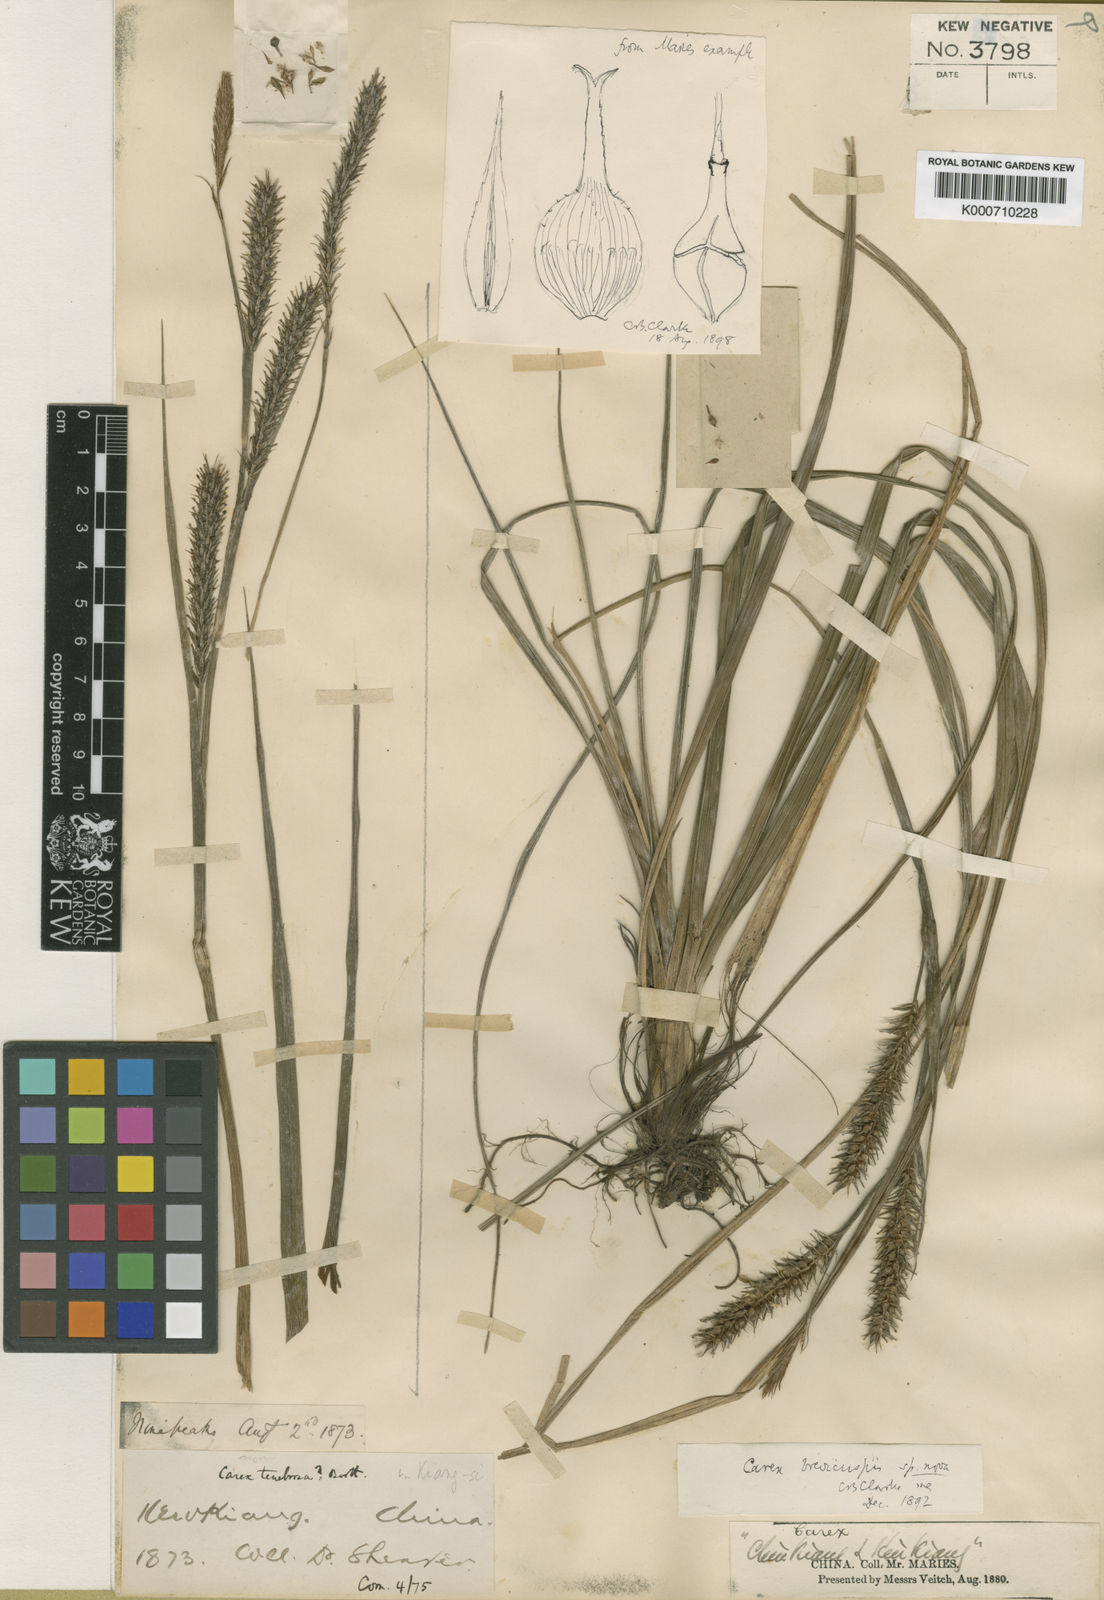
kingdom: Plantae
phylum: Tracheophyta
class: Liliopsida
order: Poales
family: Cyperaceae
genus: Carex
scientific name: Carex brevicuspis
